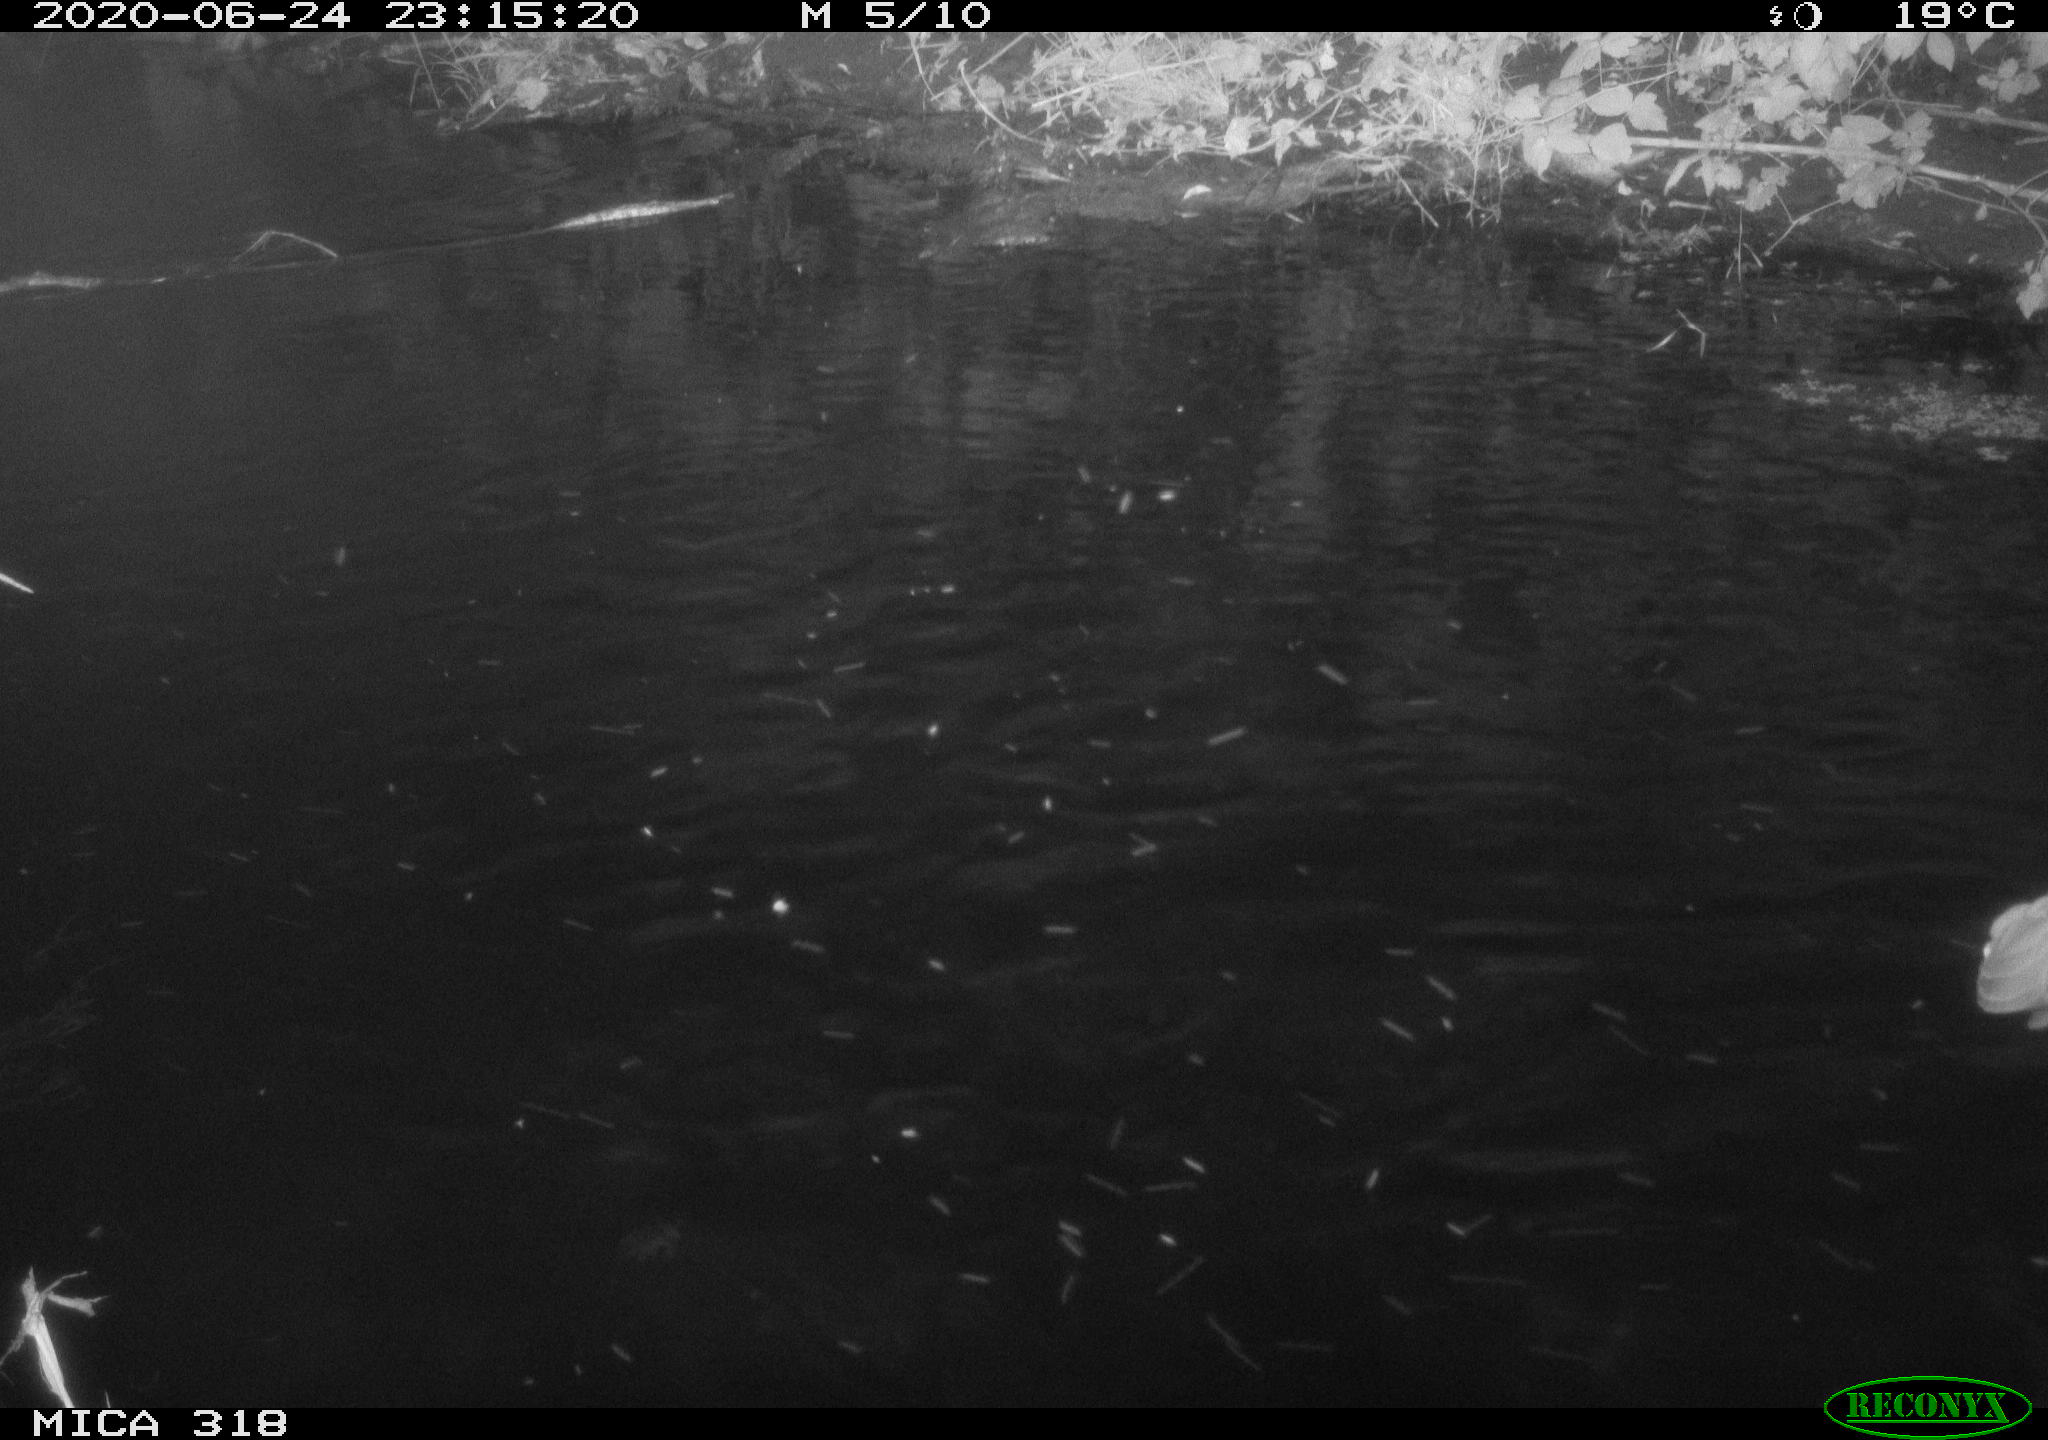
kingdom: Animalia
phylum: Chordata
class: Aves
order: Pelecaniformes
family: Ardeidae
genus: Ardea
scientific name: Ardea cinerea
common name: Grey heron
